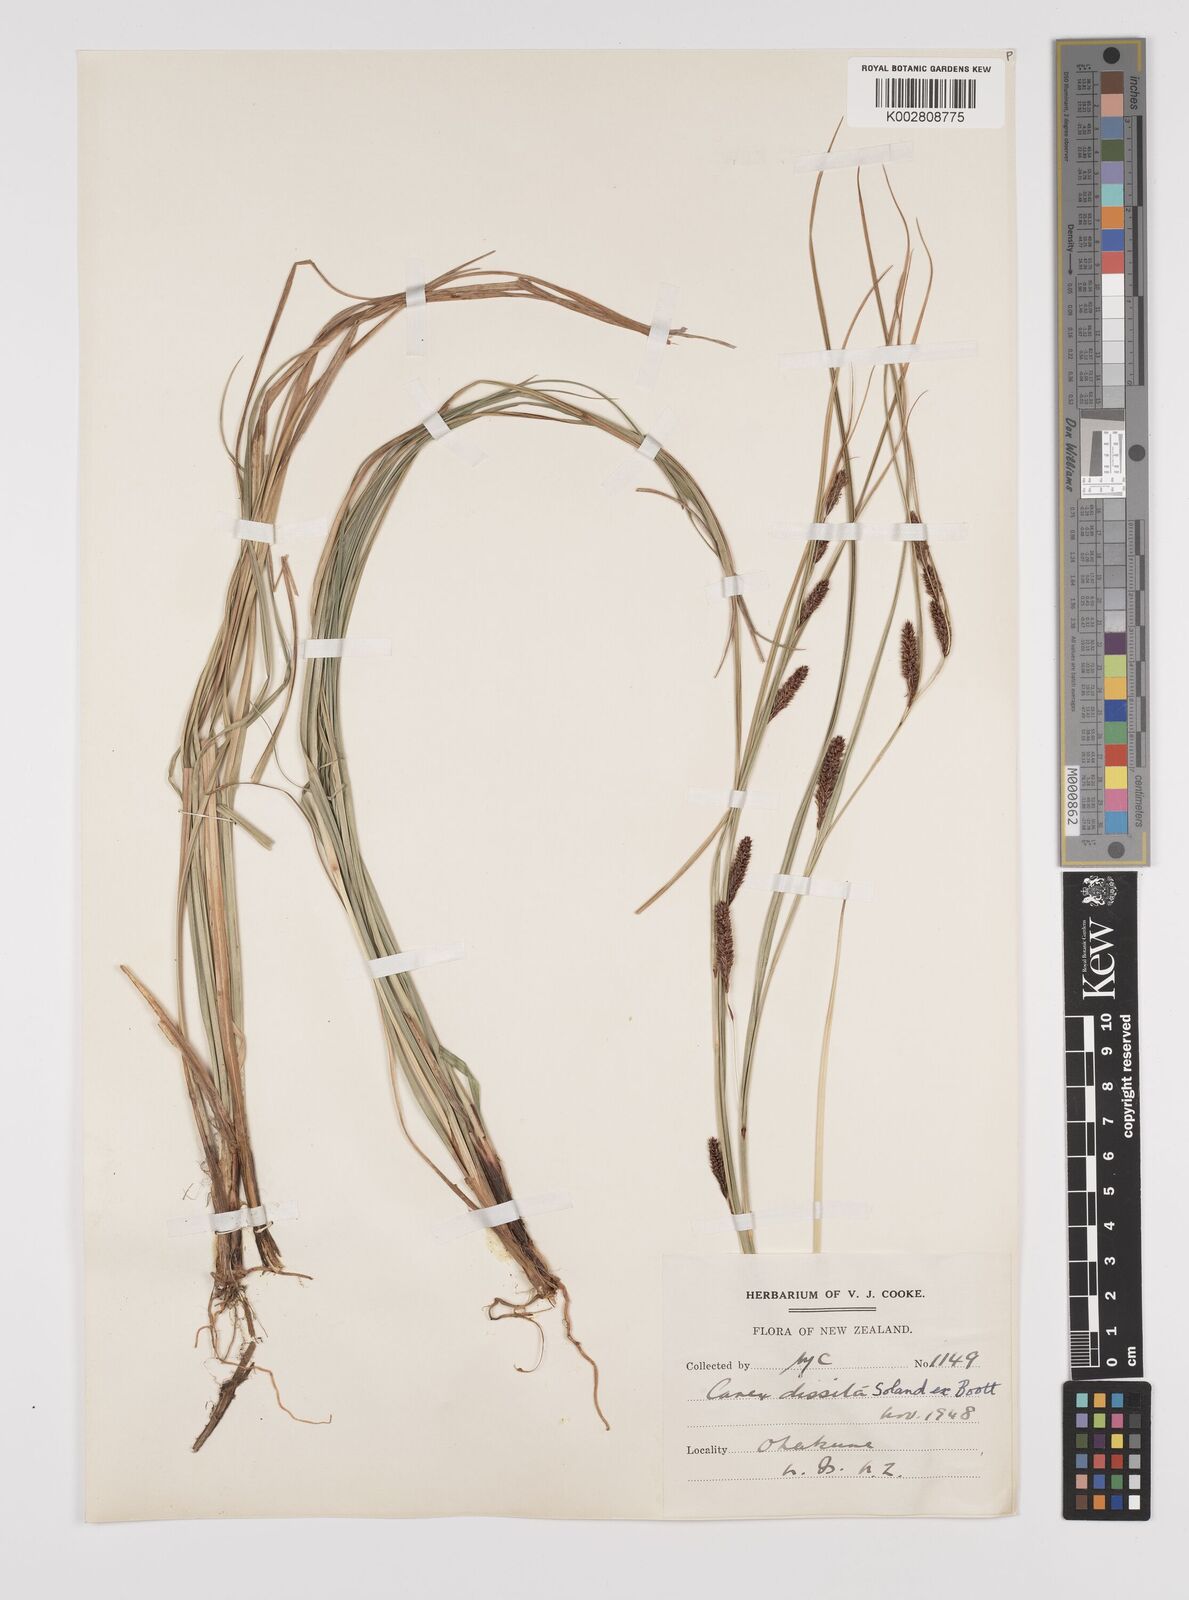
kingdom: Plantae
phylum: Tracheophyta
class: Liliopsida
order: Poales
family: Cyperaceae
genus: Carex
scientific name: Carex dissita
